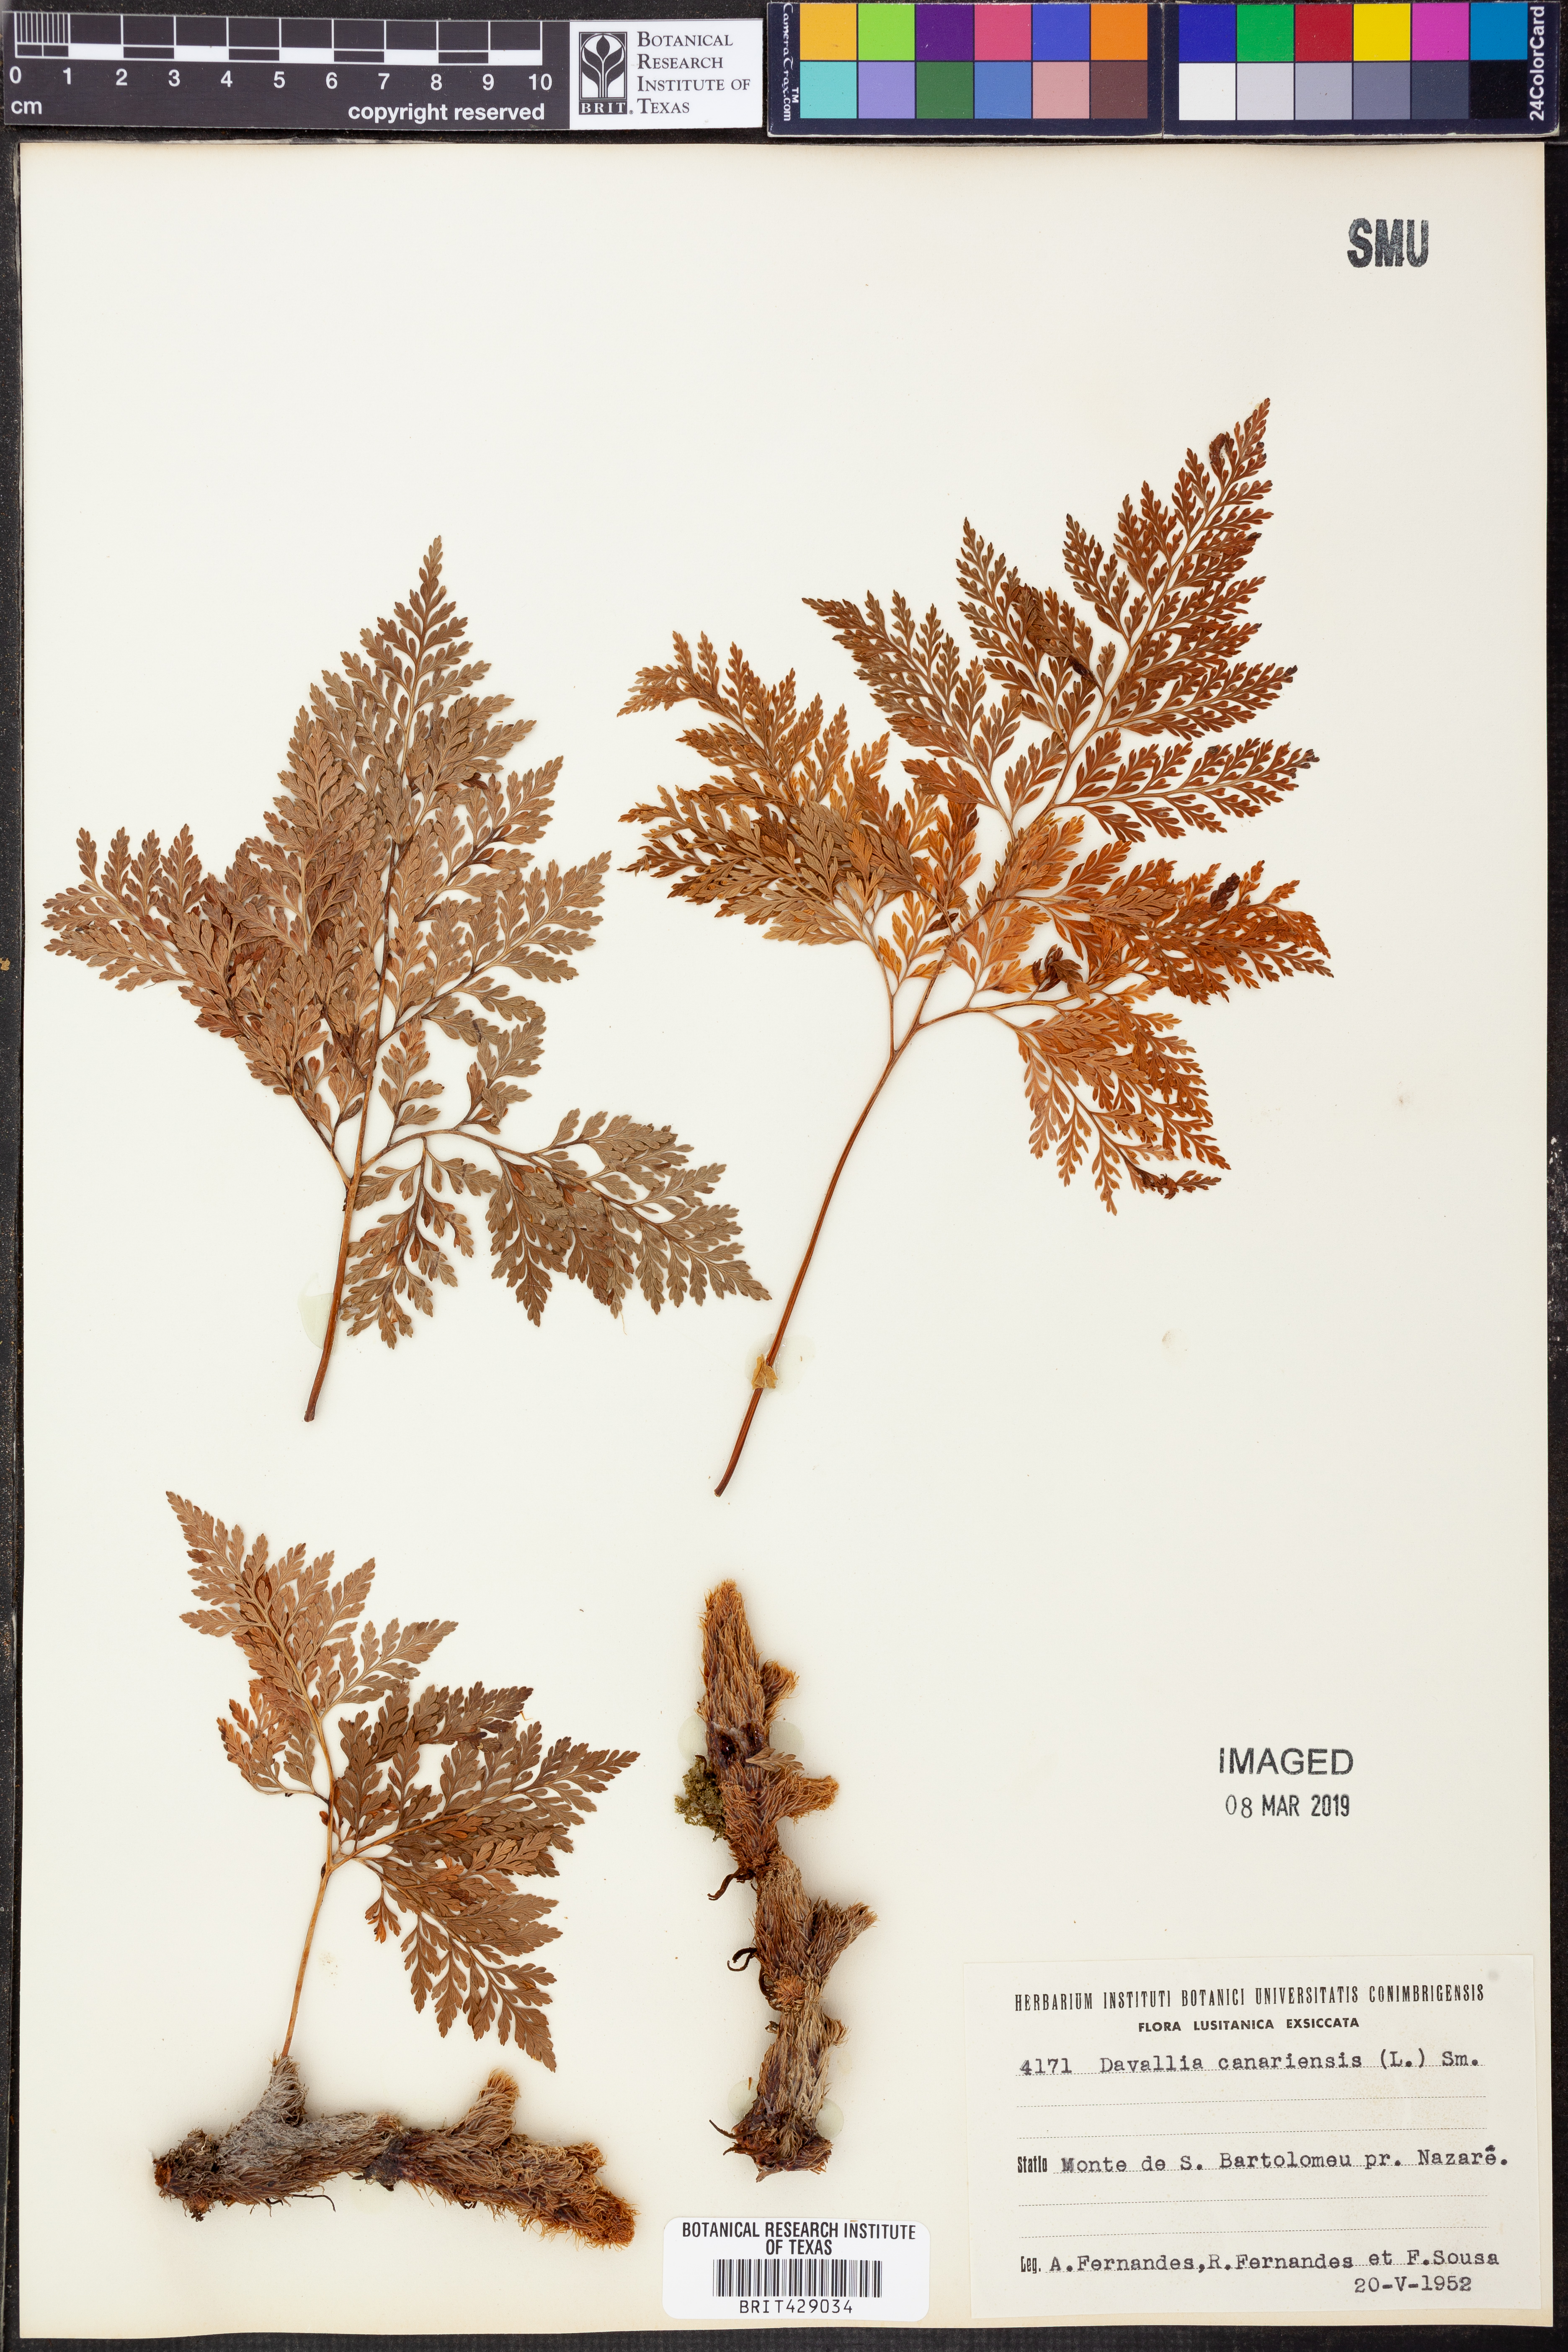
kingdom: Plantae
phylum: Tracheophyta
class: Polypodiopsida
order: Polypodiales
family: Davalliaceae
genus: Davallia
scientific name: Davallia canariensis
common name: Hare's-foot fern
